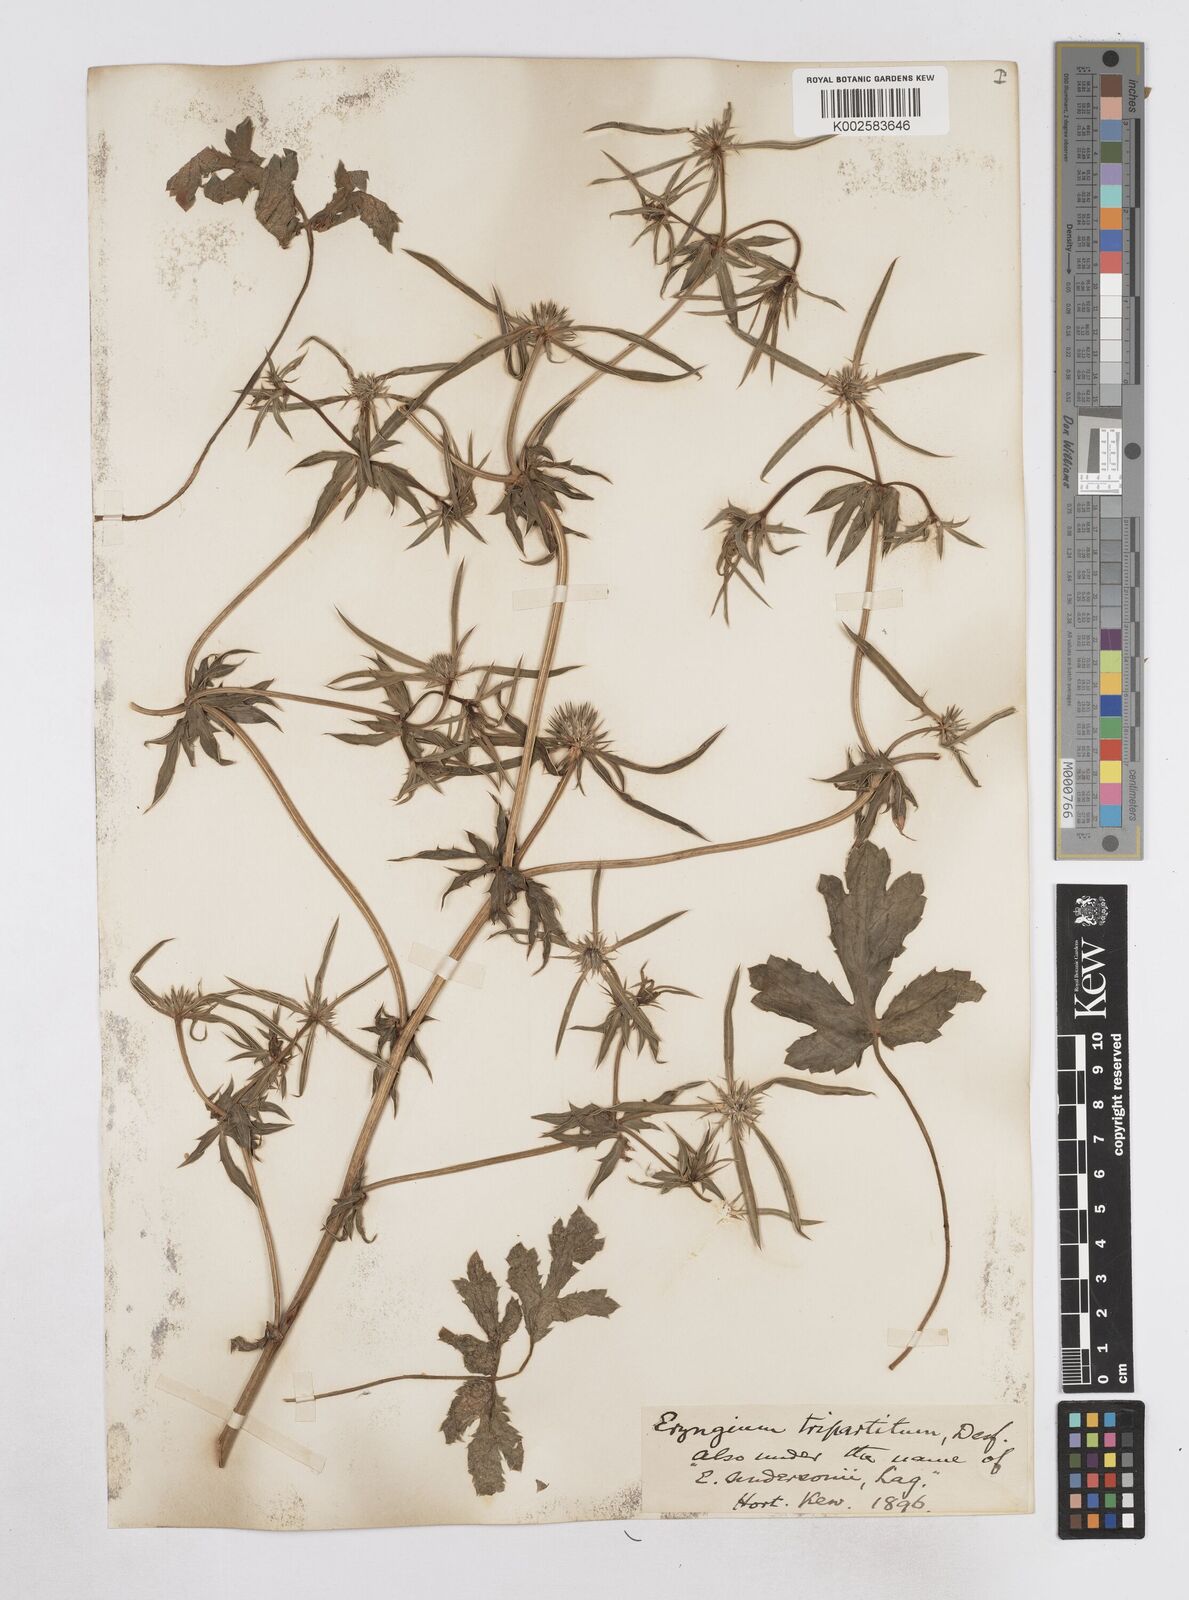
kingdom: Plantae
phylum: Tracheophyta
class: Magnoliopsida
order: Apiales
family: Apiaceae
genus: Eryngium
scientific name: Eryngium tripartitum
